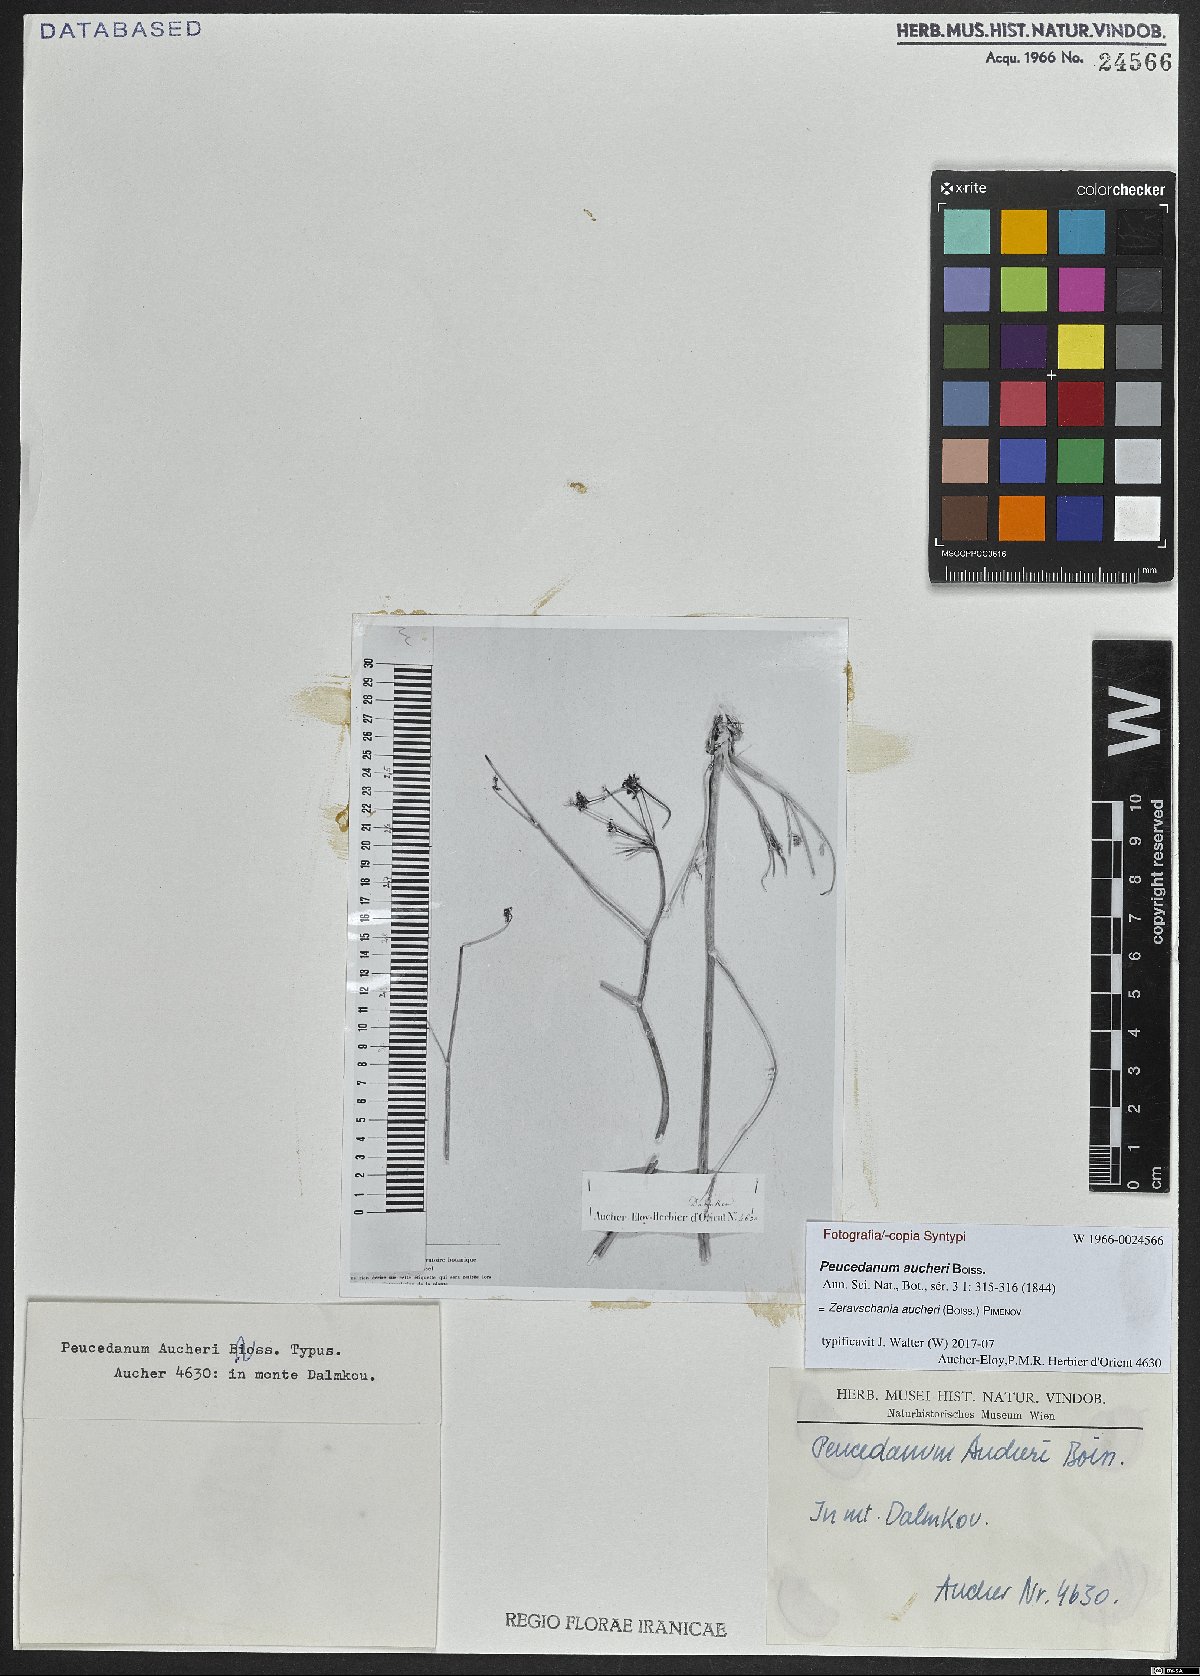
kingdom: Plantae
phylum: Tracheophyta
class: Magnoliopsida
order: Apiales
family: Apiaceae
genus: Zeravschania
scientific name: Zeravschania aucheri
